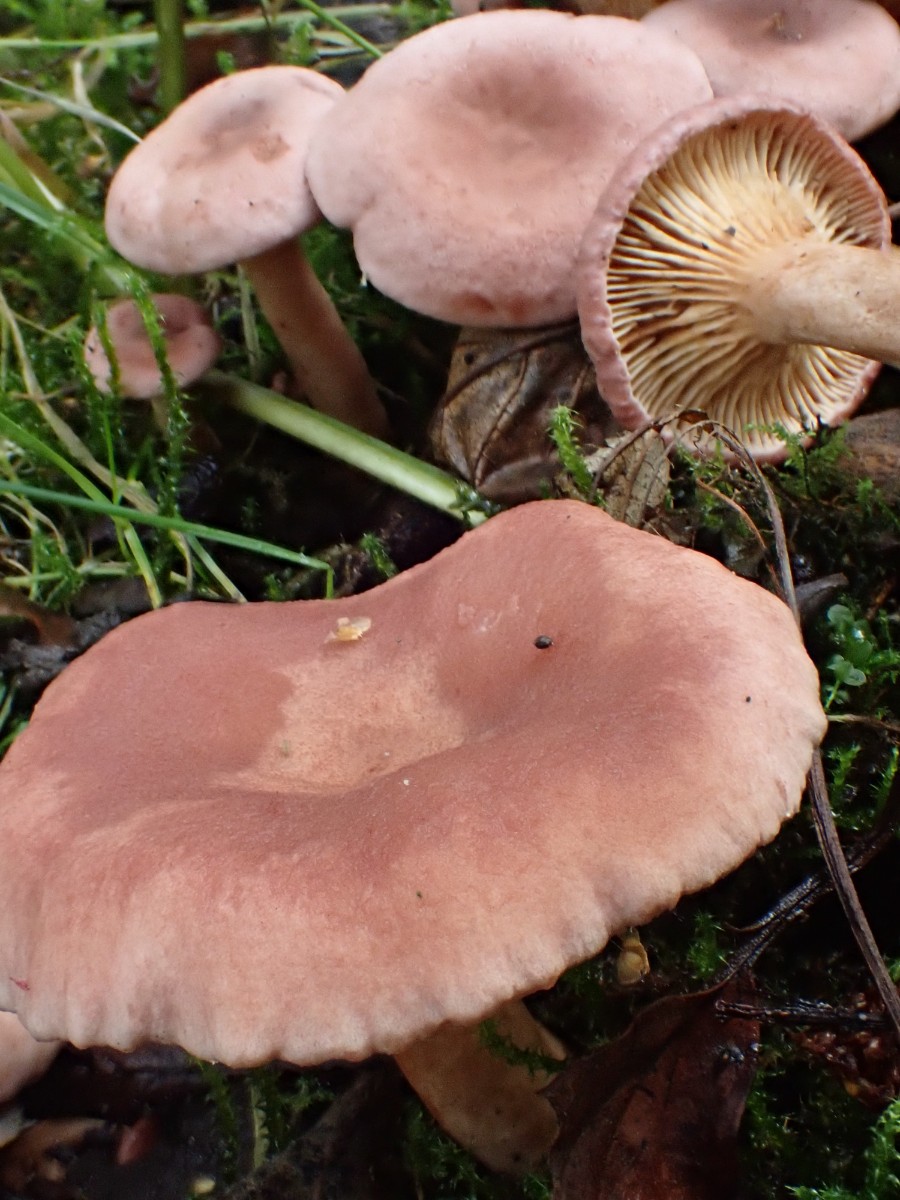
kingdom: Fungi
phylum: Basidiomycota
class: Agaricomycetes
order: Russulales
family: Russulaceae
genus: Lactarius
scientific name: Lactarius lilacinus
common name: lilla mælkehat
